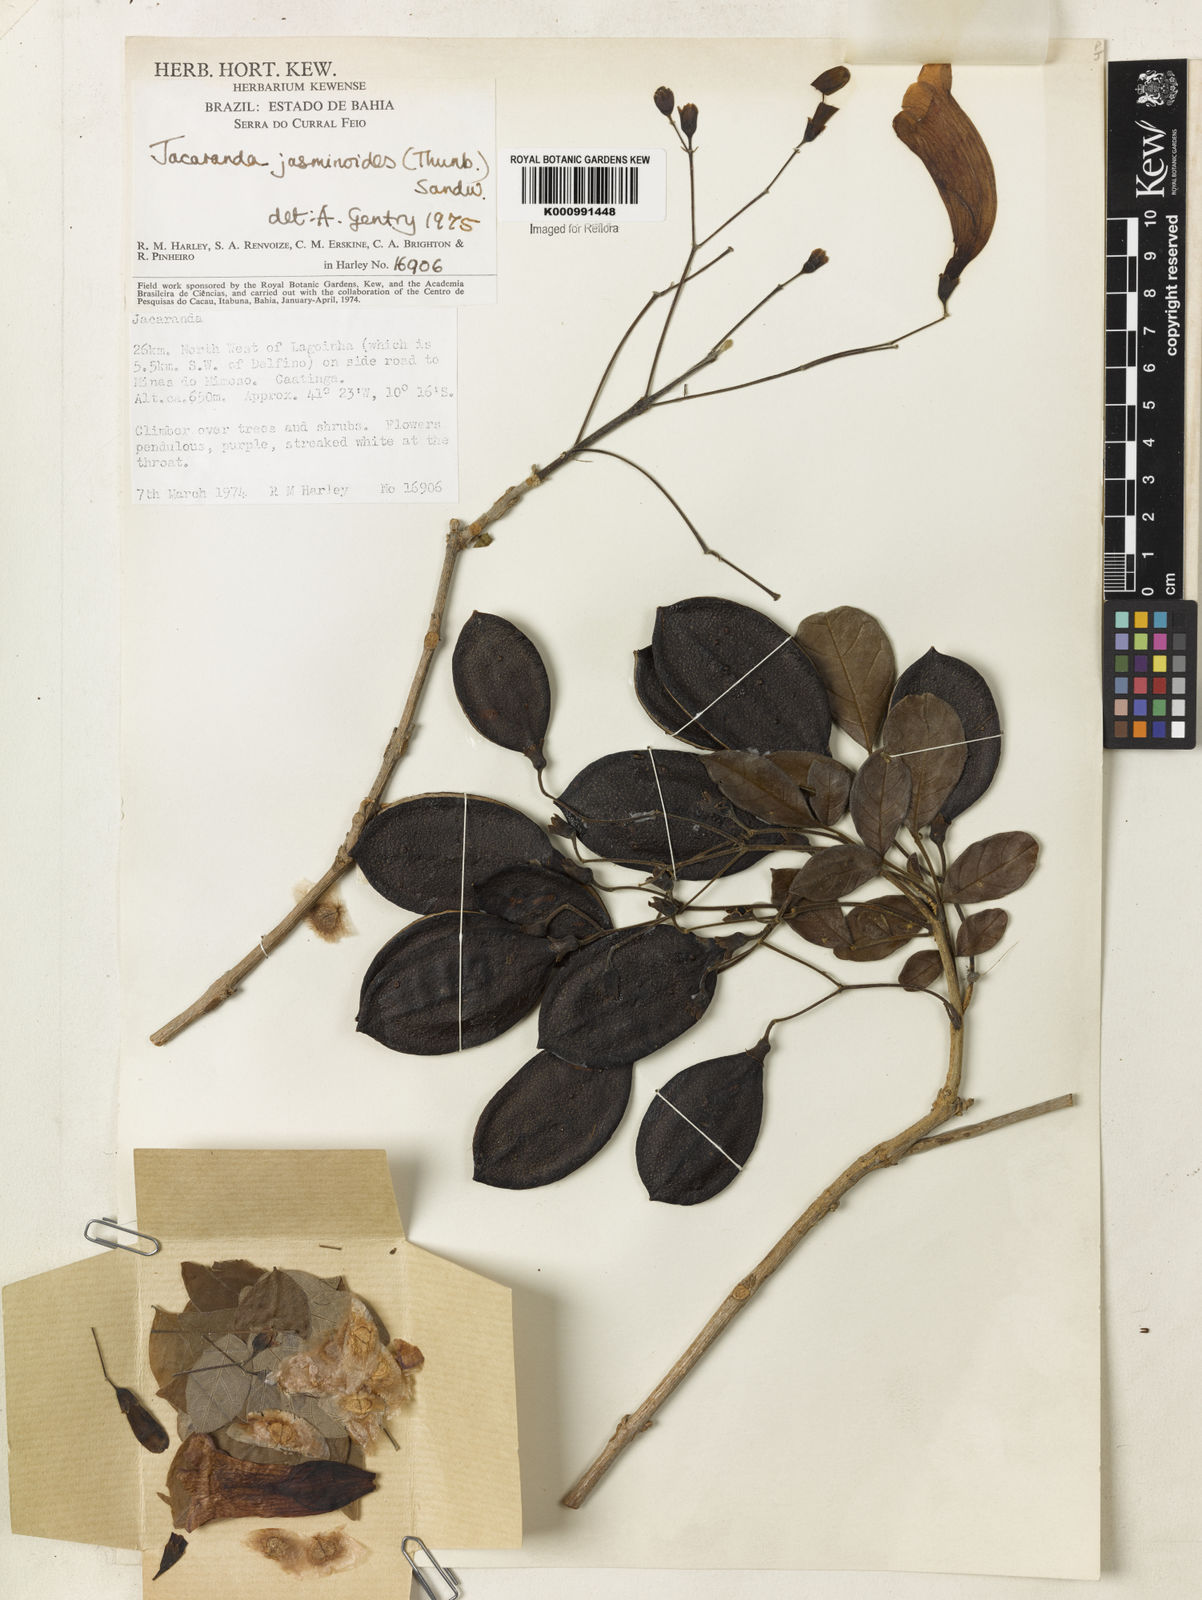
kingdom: Plantae
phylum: Tracheophyta
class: Magnoliopsida
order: Lamiales
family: Bignoniaceae
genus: Jacaranda
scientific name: Jacaranda jasminoides
